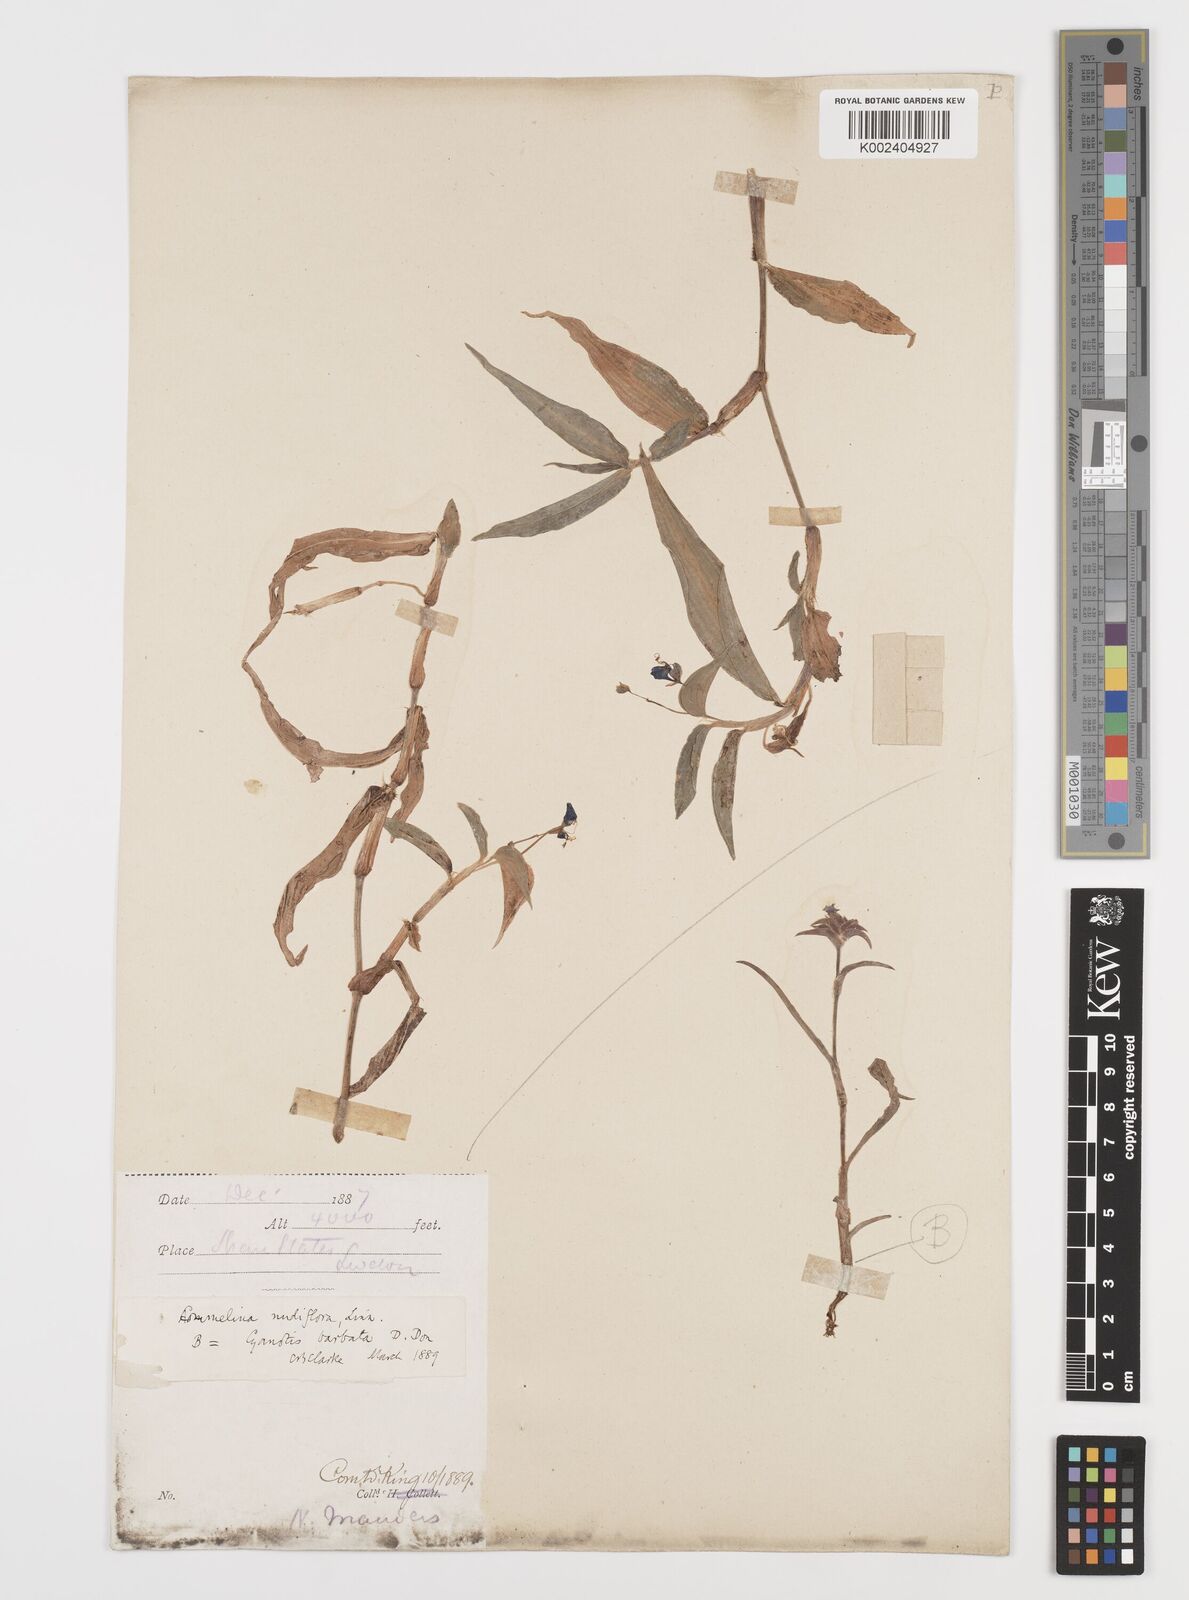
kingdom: Plantae
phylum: Tracheophyta
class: Liliopsida
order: Commelinales
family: Commelinaceae
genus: Murdannia
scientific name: Murdannia nudiflora
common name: Nakedstem dewflower
